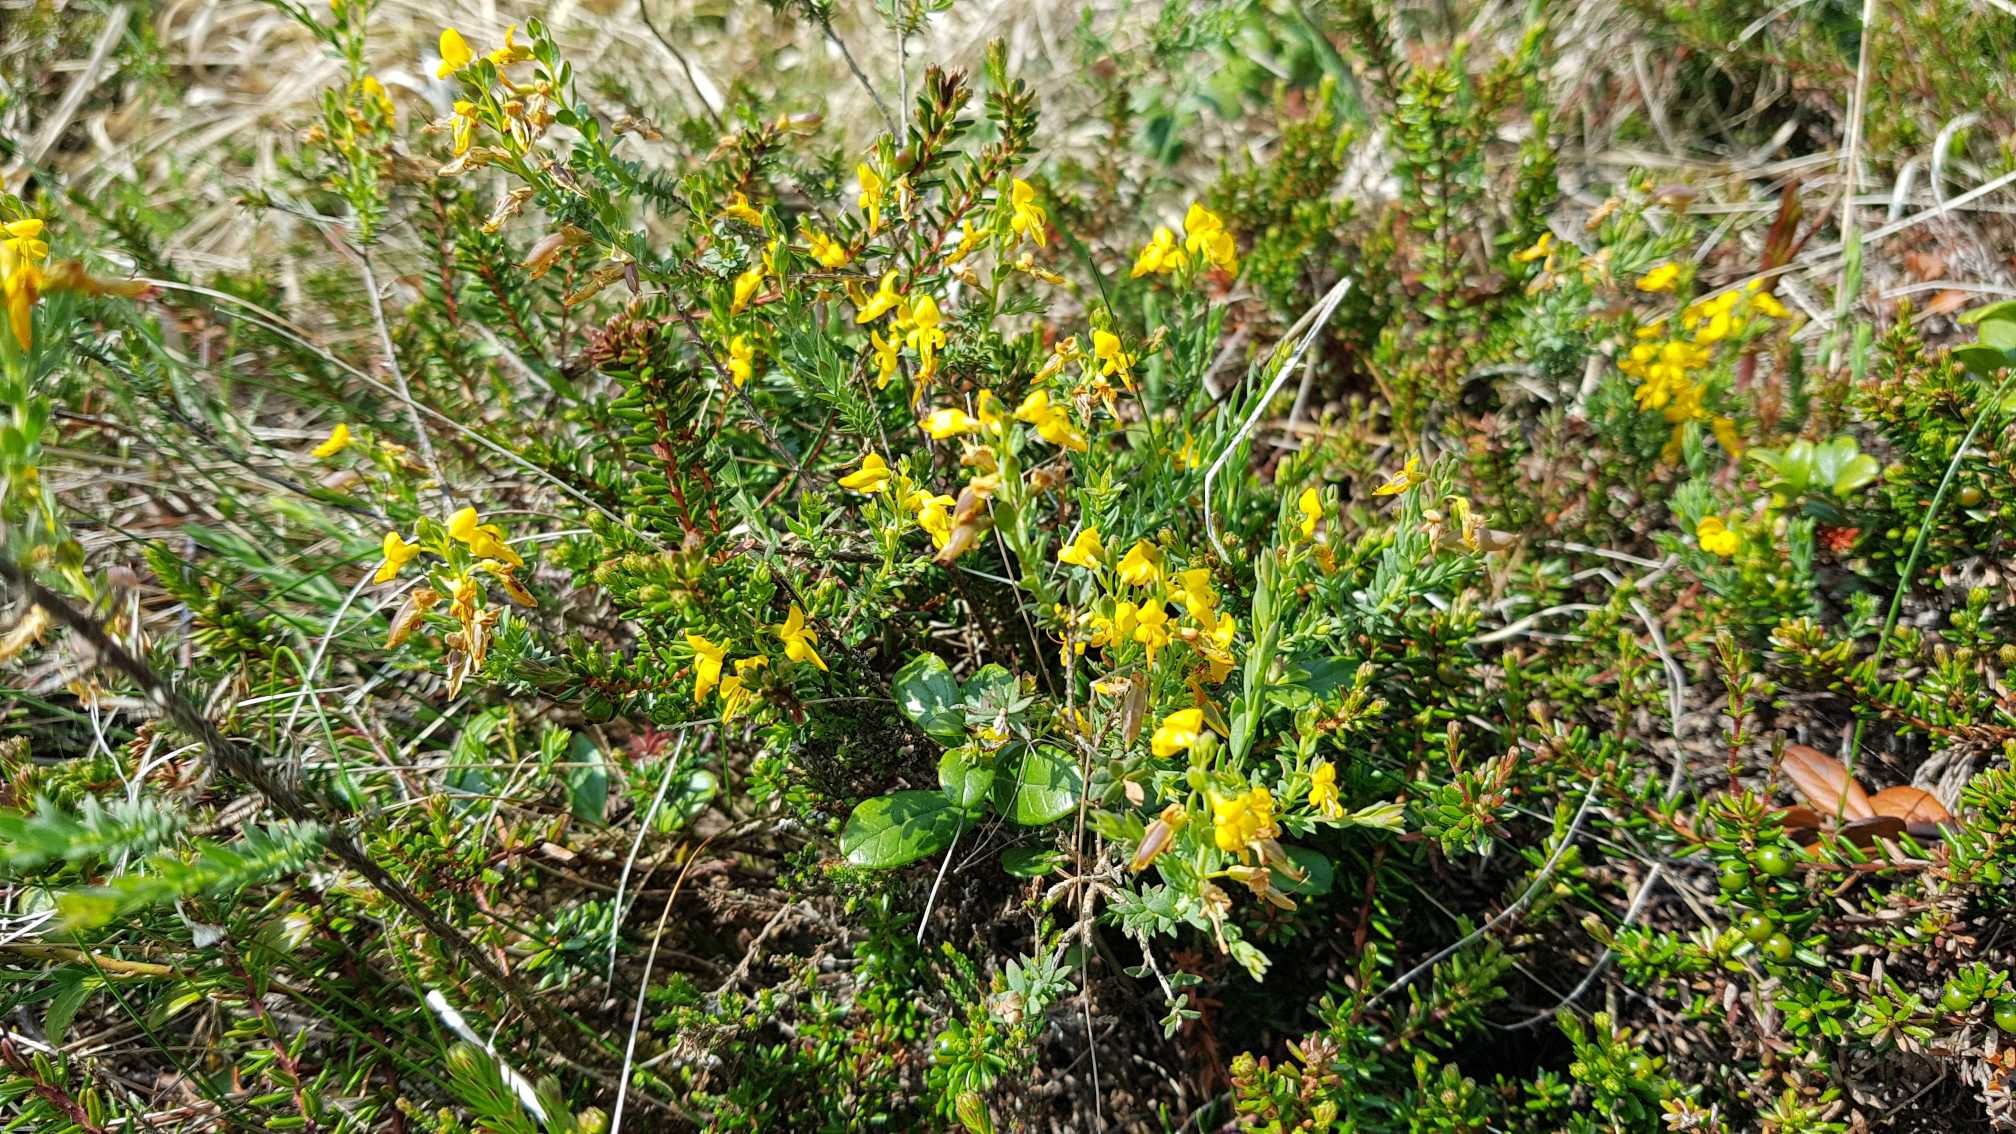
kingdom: Plantae
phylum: Tracheophyta
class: Magnoliopsida
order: Fabales
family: Fabaceae
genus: Genista
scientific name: Genista anglica
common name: Engelsk visse
